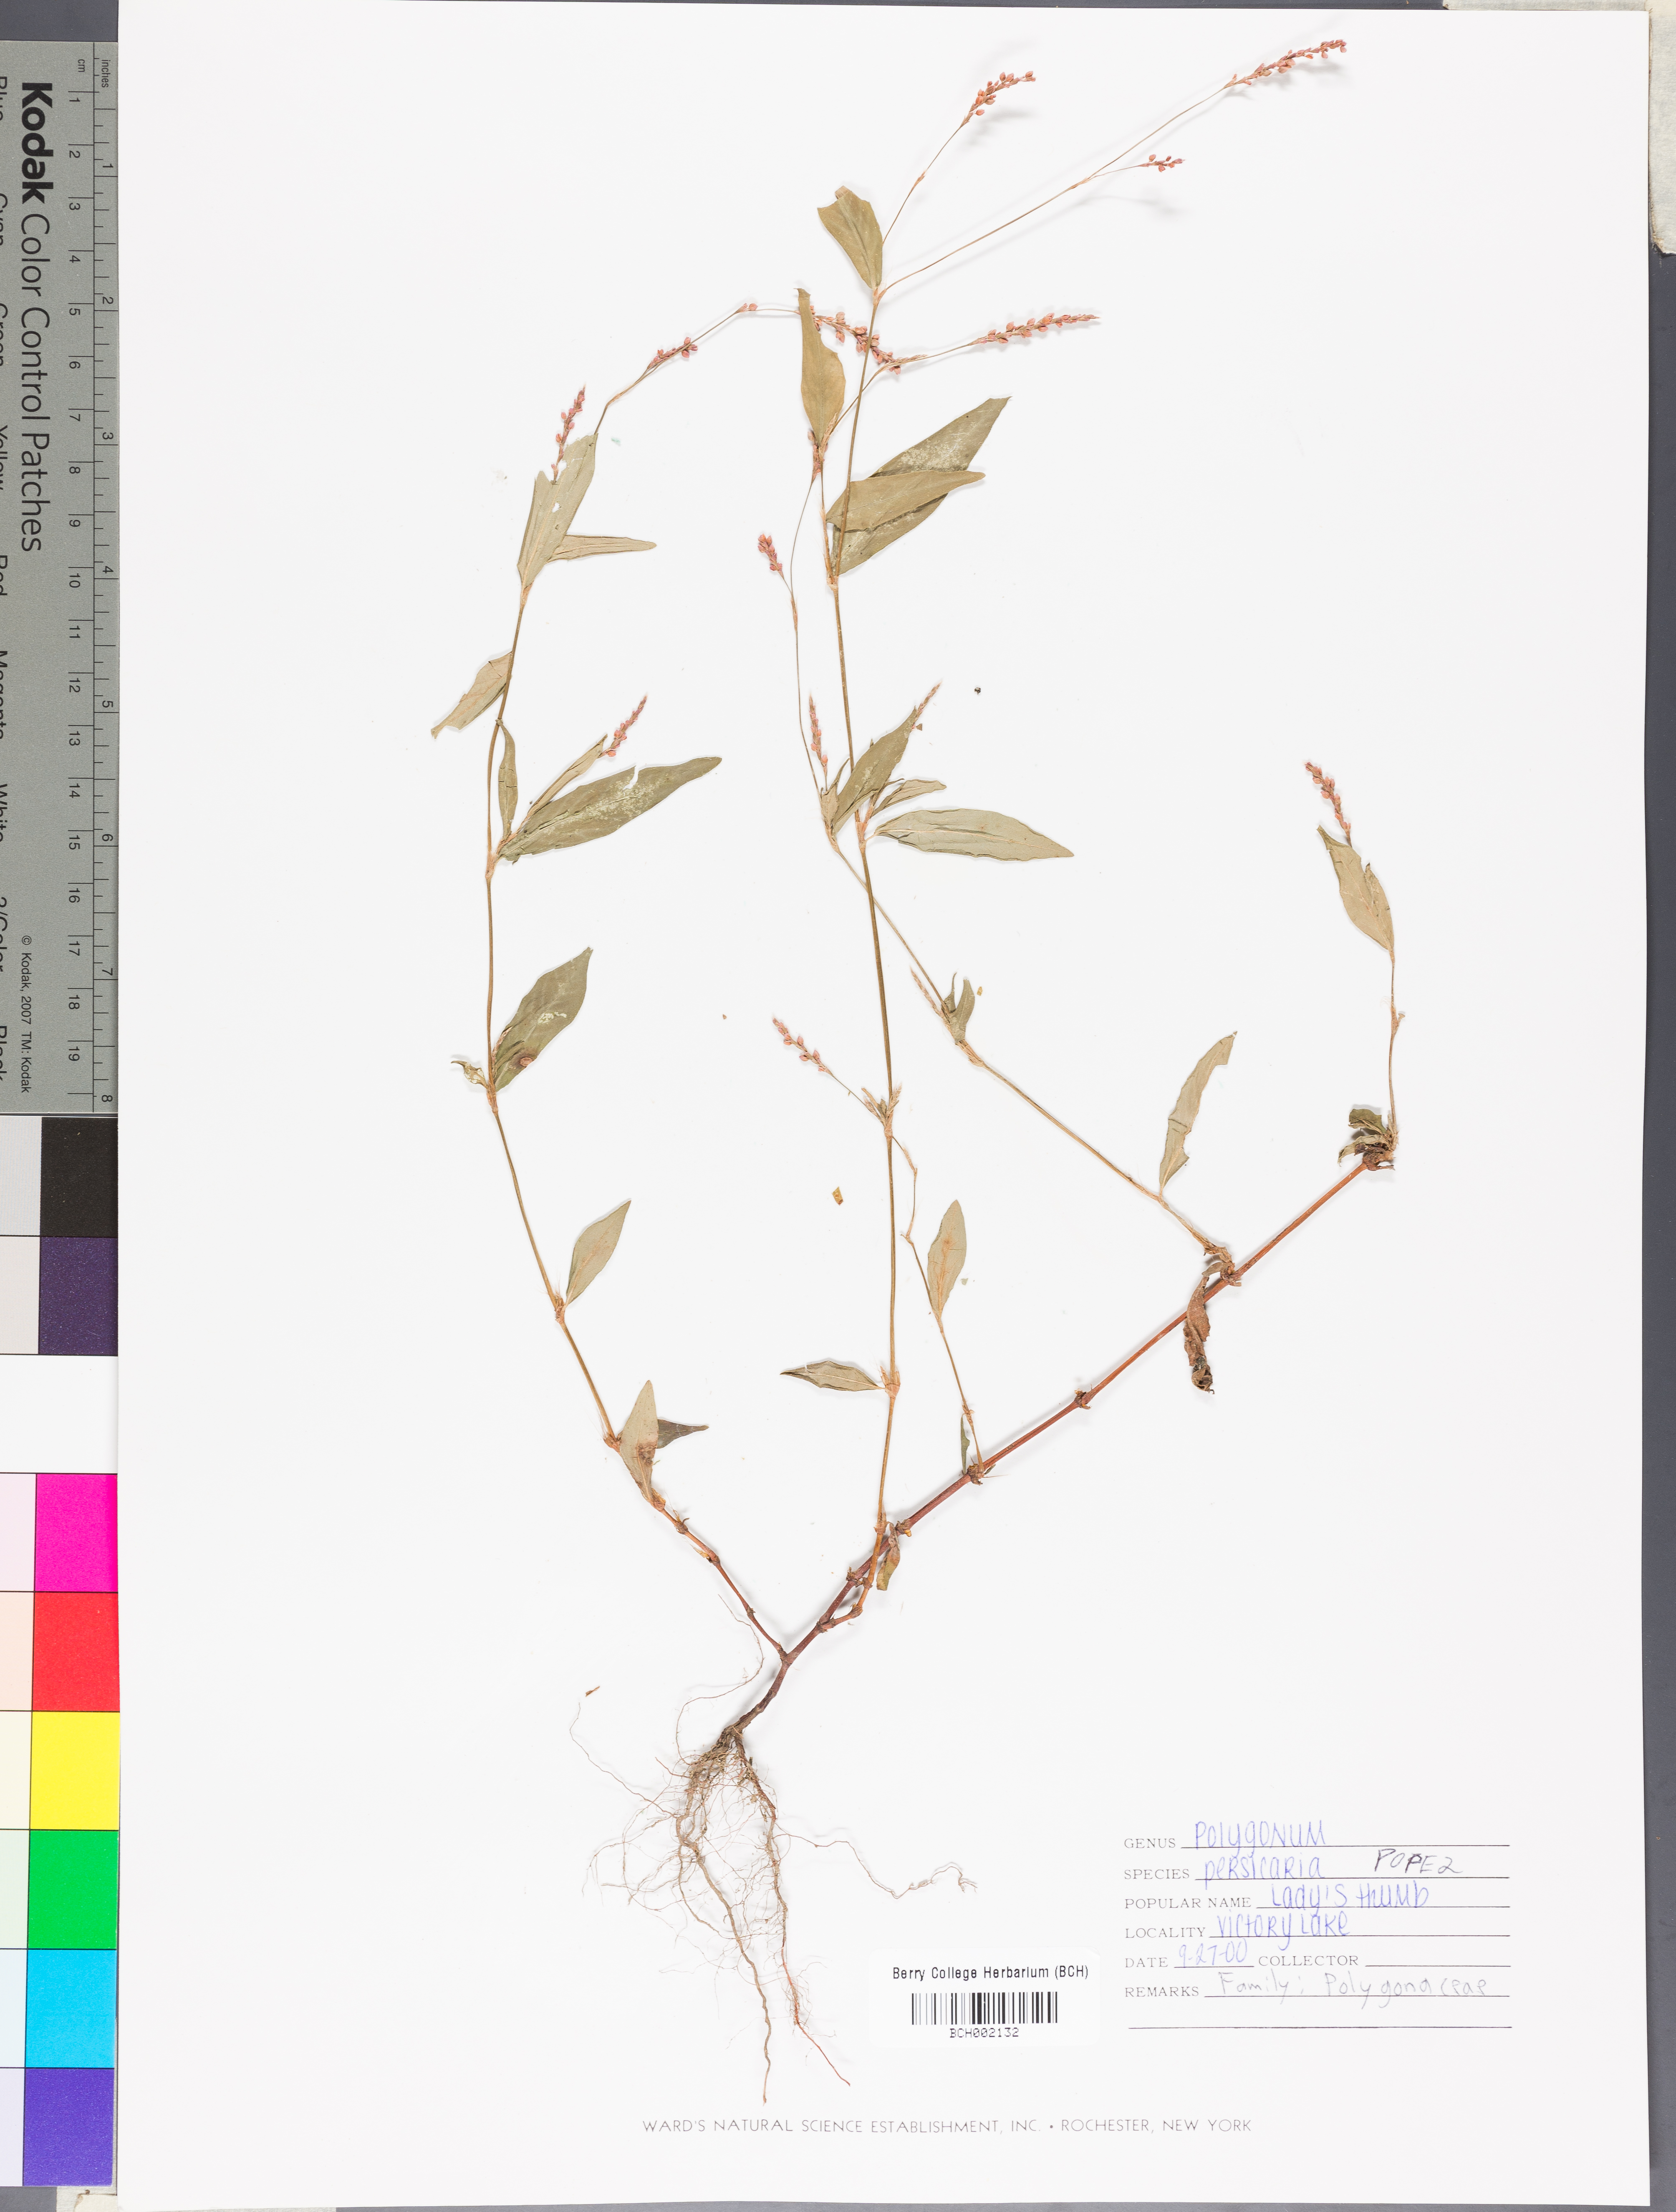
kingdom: Plantae
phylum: Tracheophyta
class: Magnoliopsida
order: Caryophyllales
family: Polygonaceae
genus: Persicaria
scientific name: Persicaria maculosa
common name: Redshank
